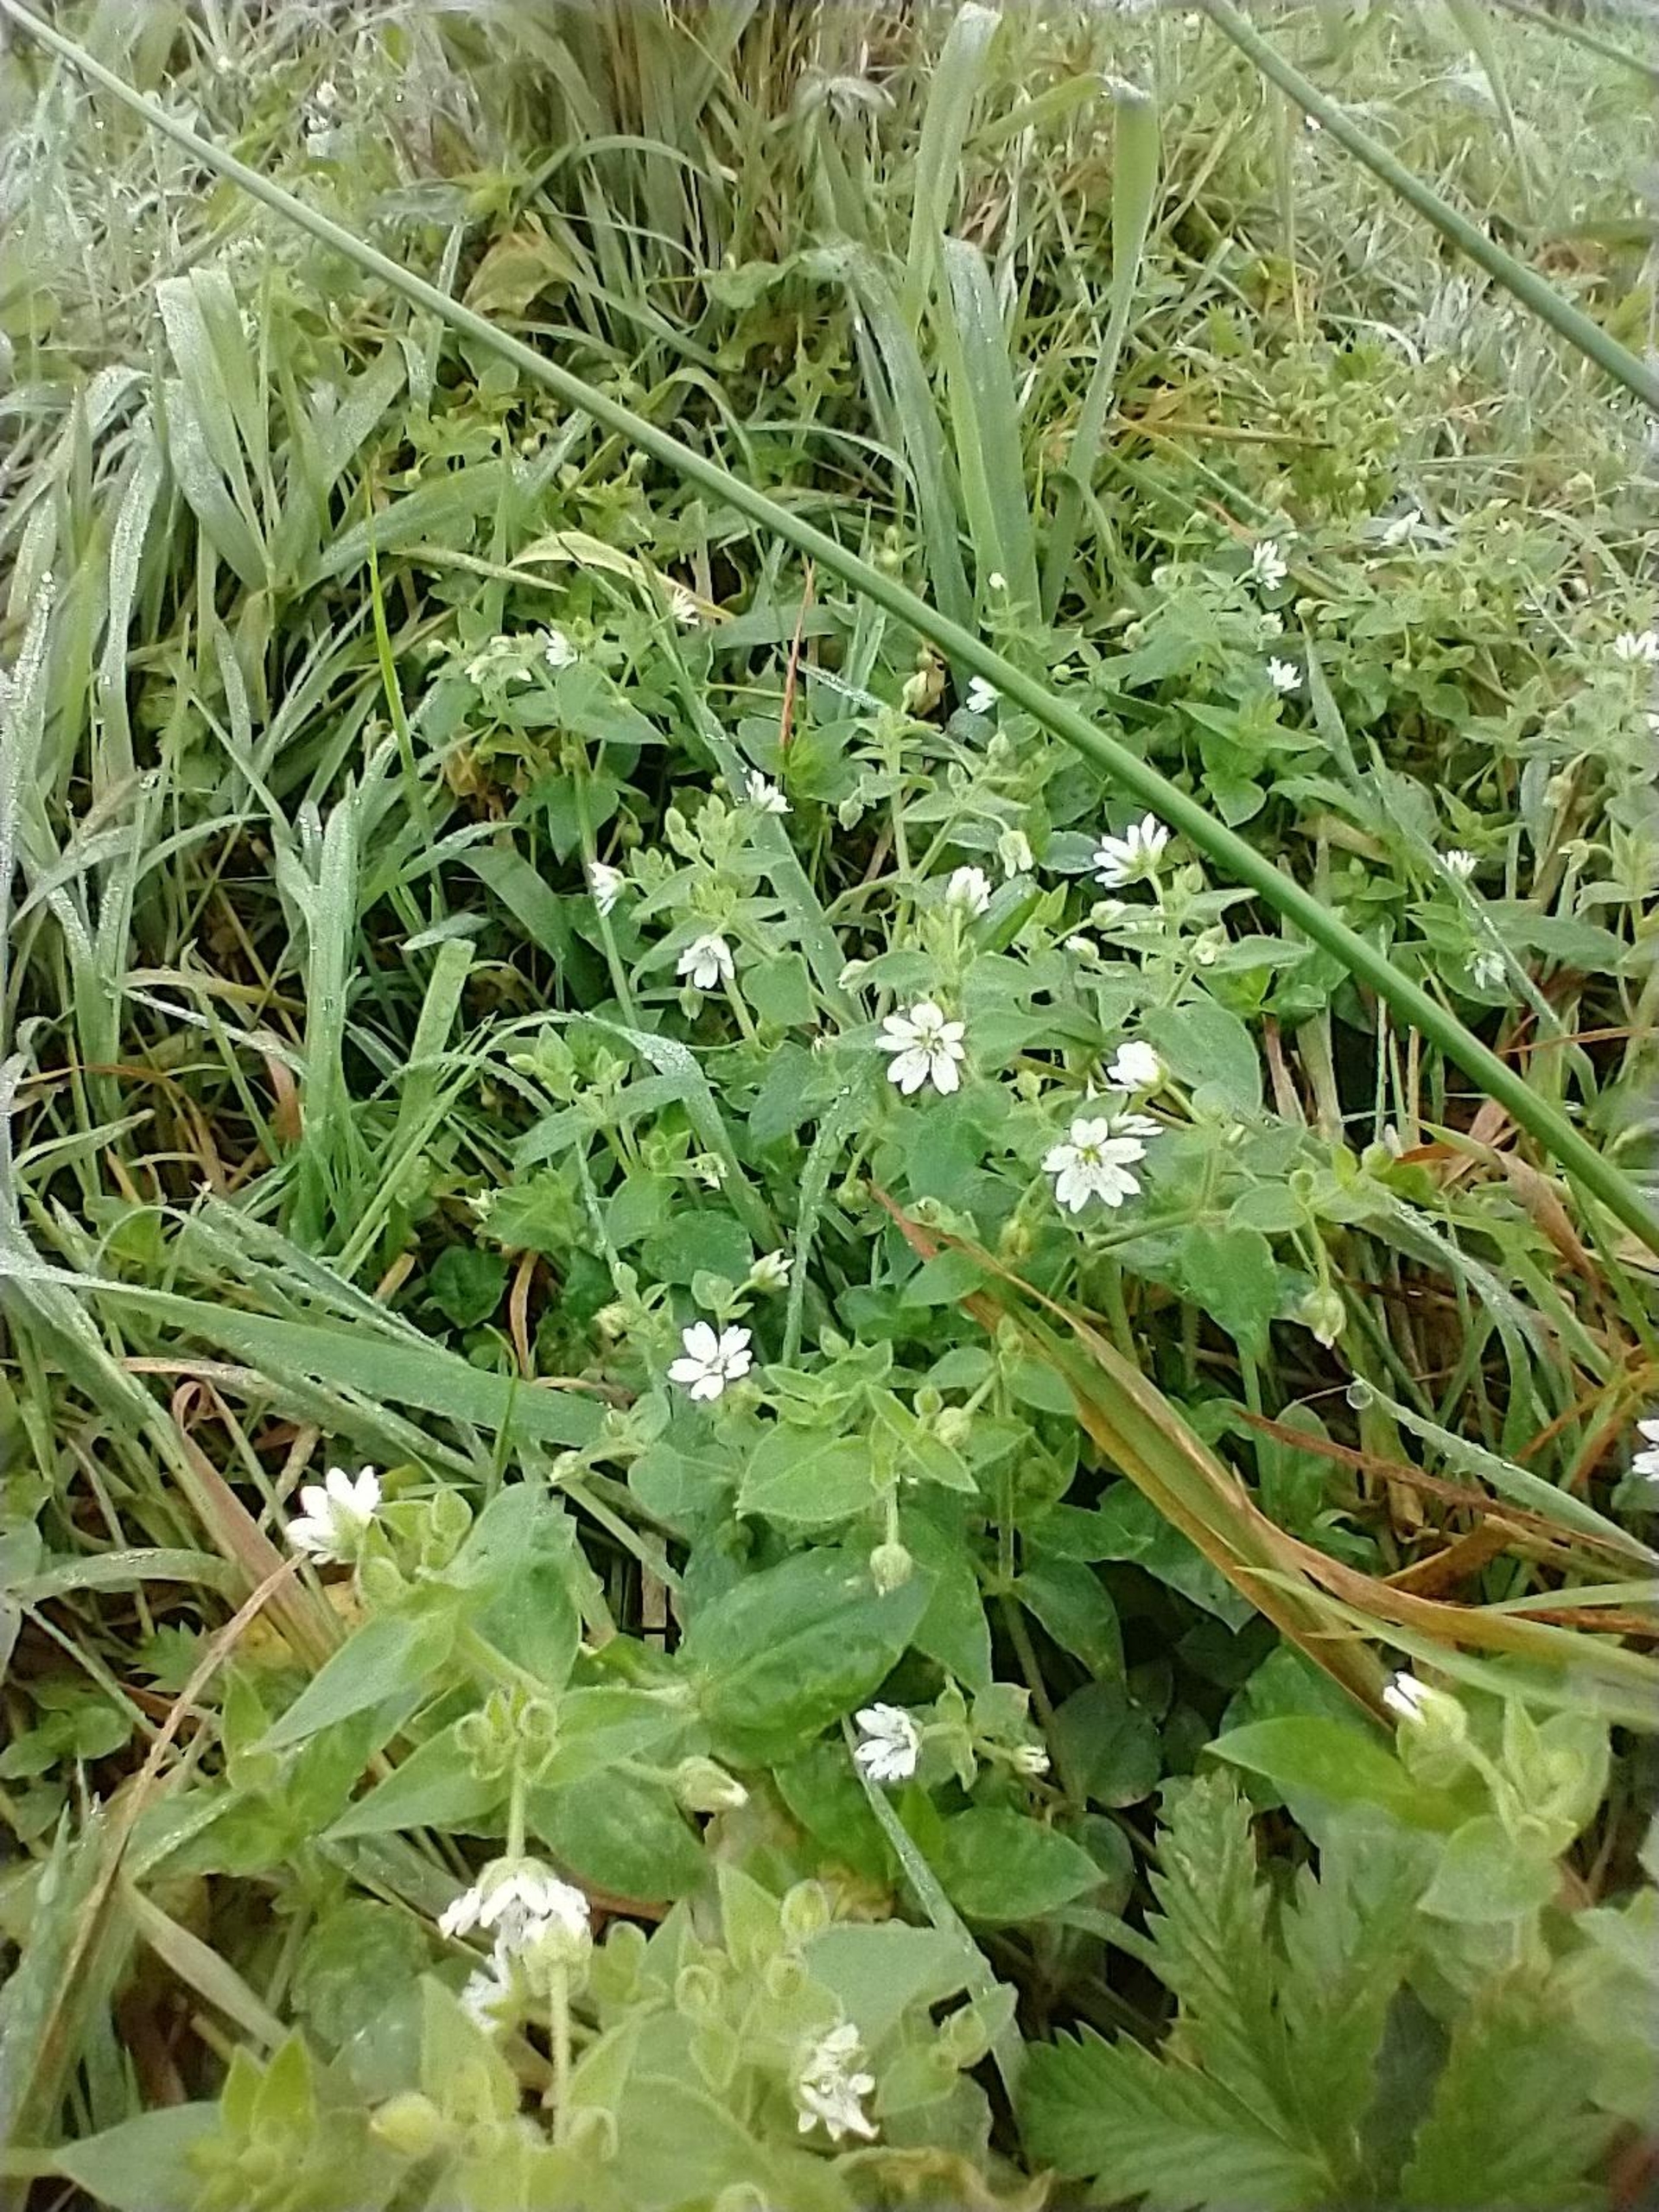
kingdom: Plantae
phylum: Tracheophyta
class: Magnoliopsida
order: Caryophyllales
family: Caryophyllaceae
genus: Stellaria
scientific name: Stellaria aquatica
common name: Kløvkrone
